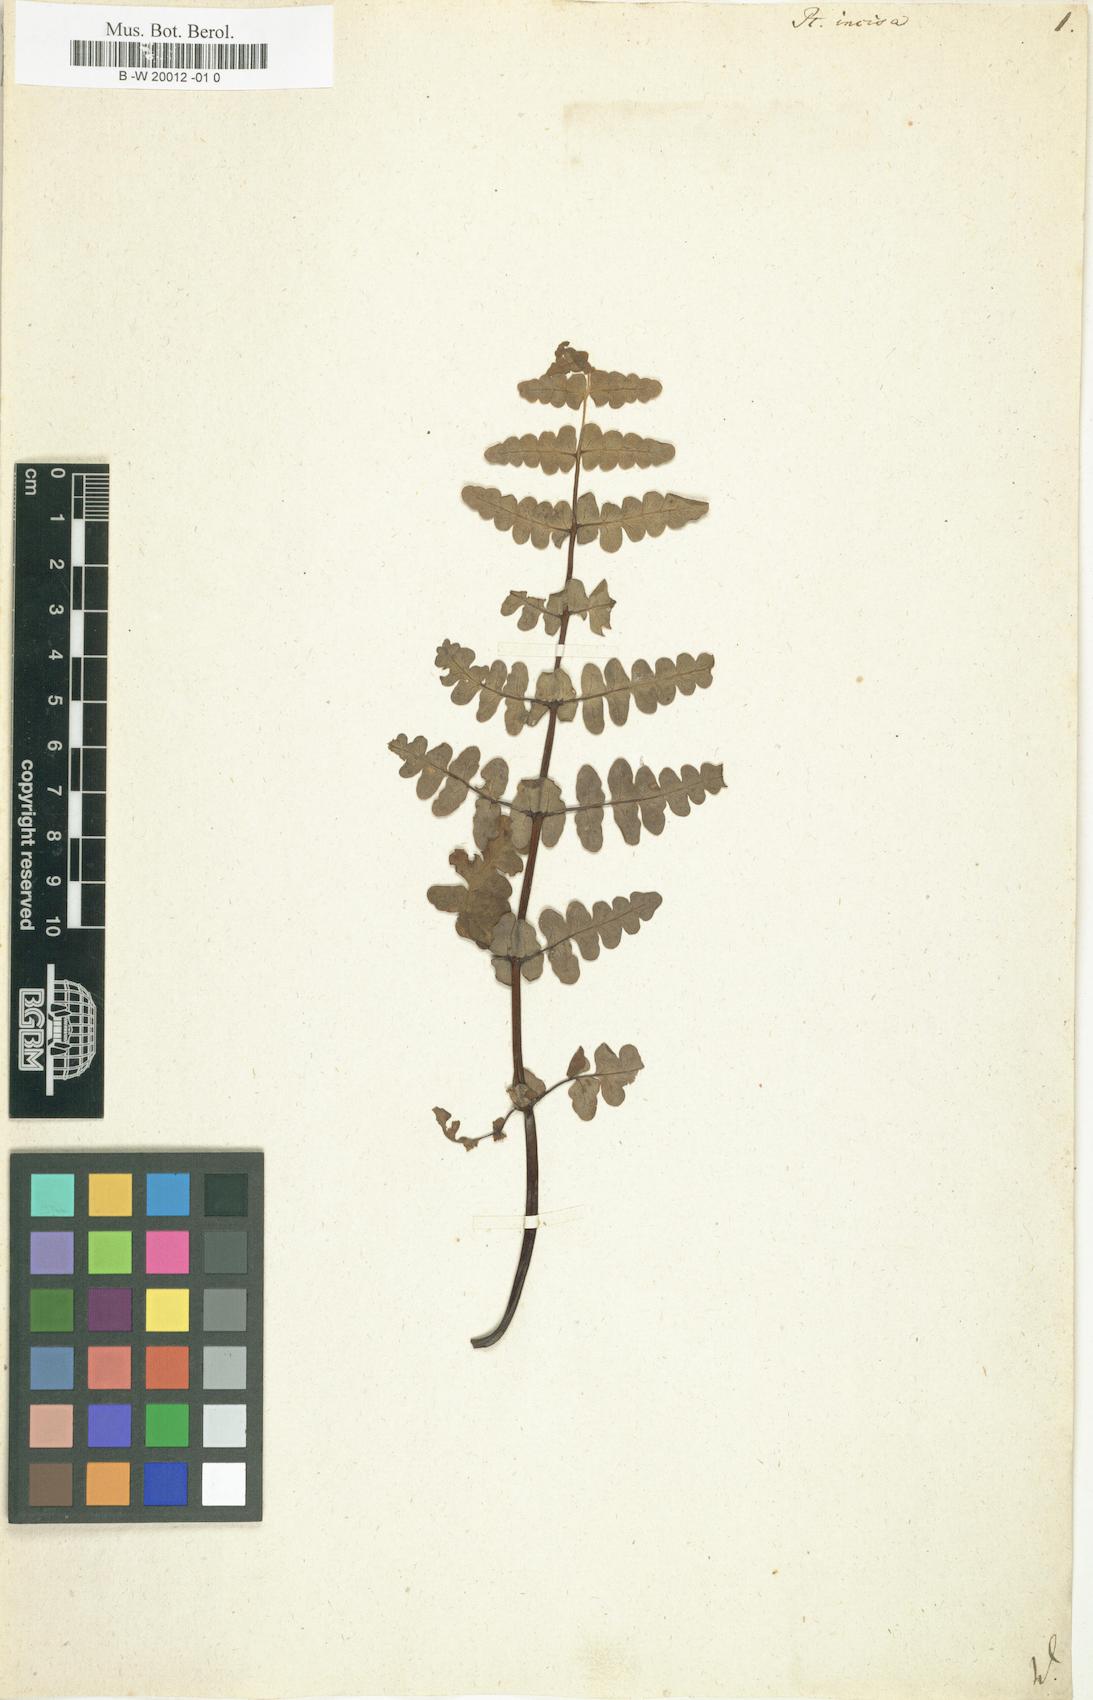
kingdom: Plantae
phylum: Tracheophyta
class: Polypodiopsida
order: Polypodiales
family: Dennstaedtiaceae
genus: Histiopteris
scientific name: Histiopteris incisa
